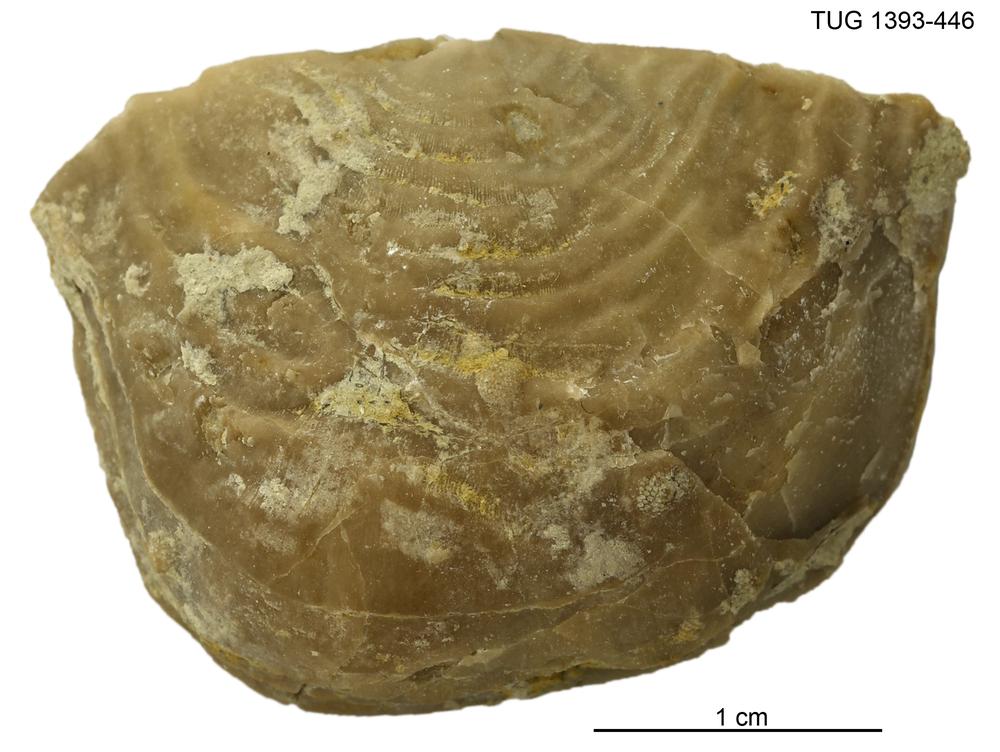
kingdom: Animalia
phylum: Brachiopoda
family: Strophomenidae
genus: Dactylogonia
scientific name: Dactylogonia
